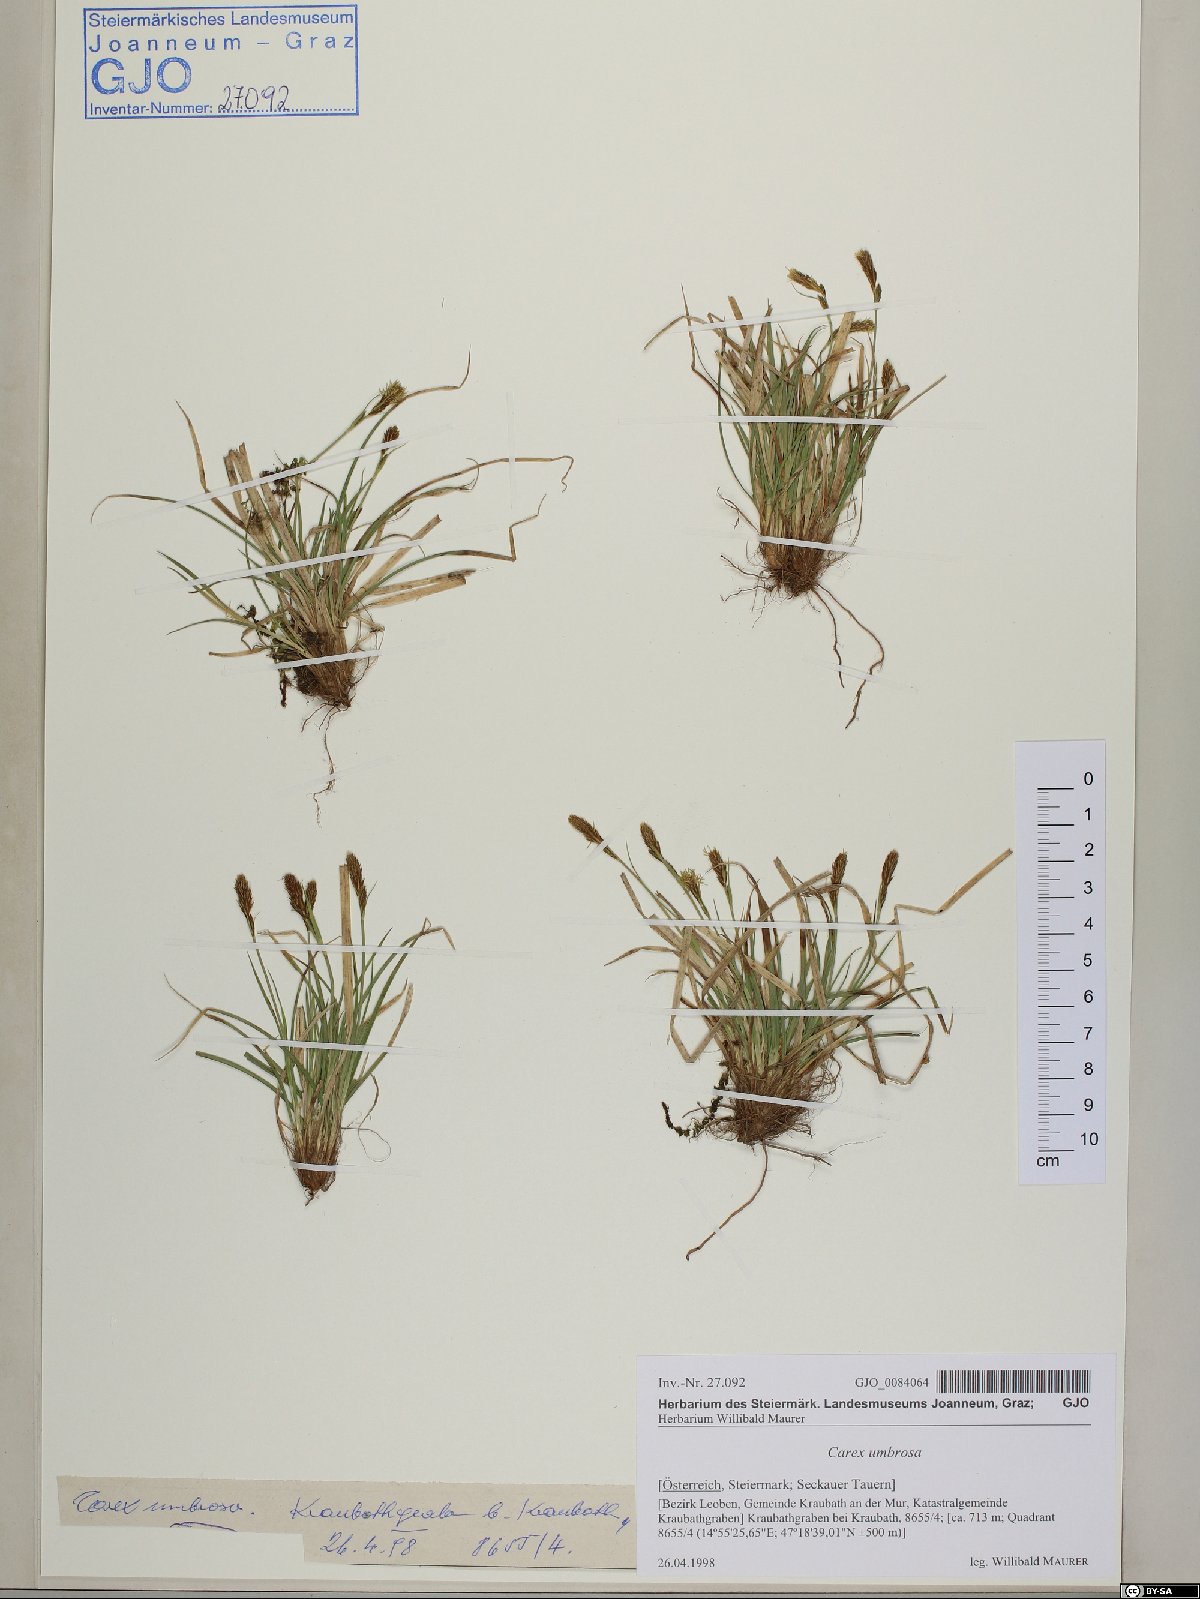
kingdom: Plantae
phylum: Tracheophyta
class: Liliopsida
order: Poales
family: Cyperaceae
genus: Carex
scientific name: Carex umbrosa
